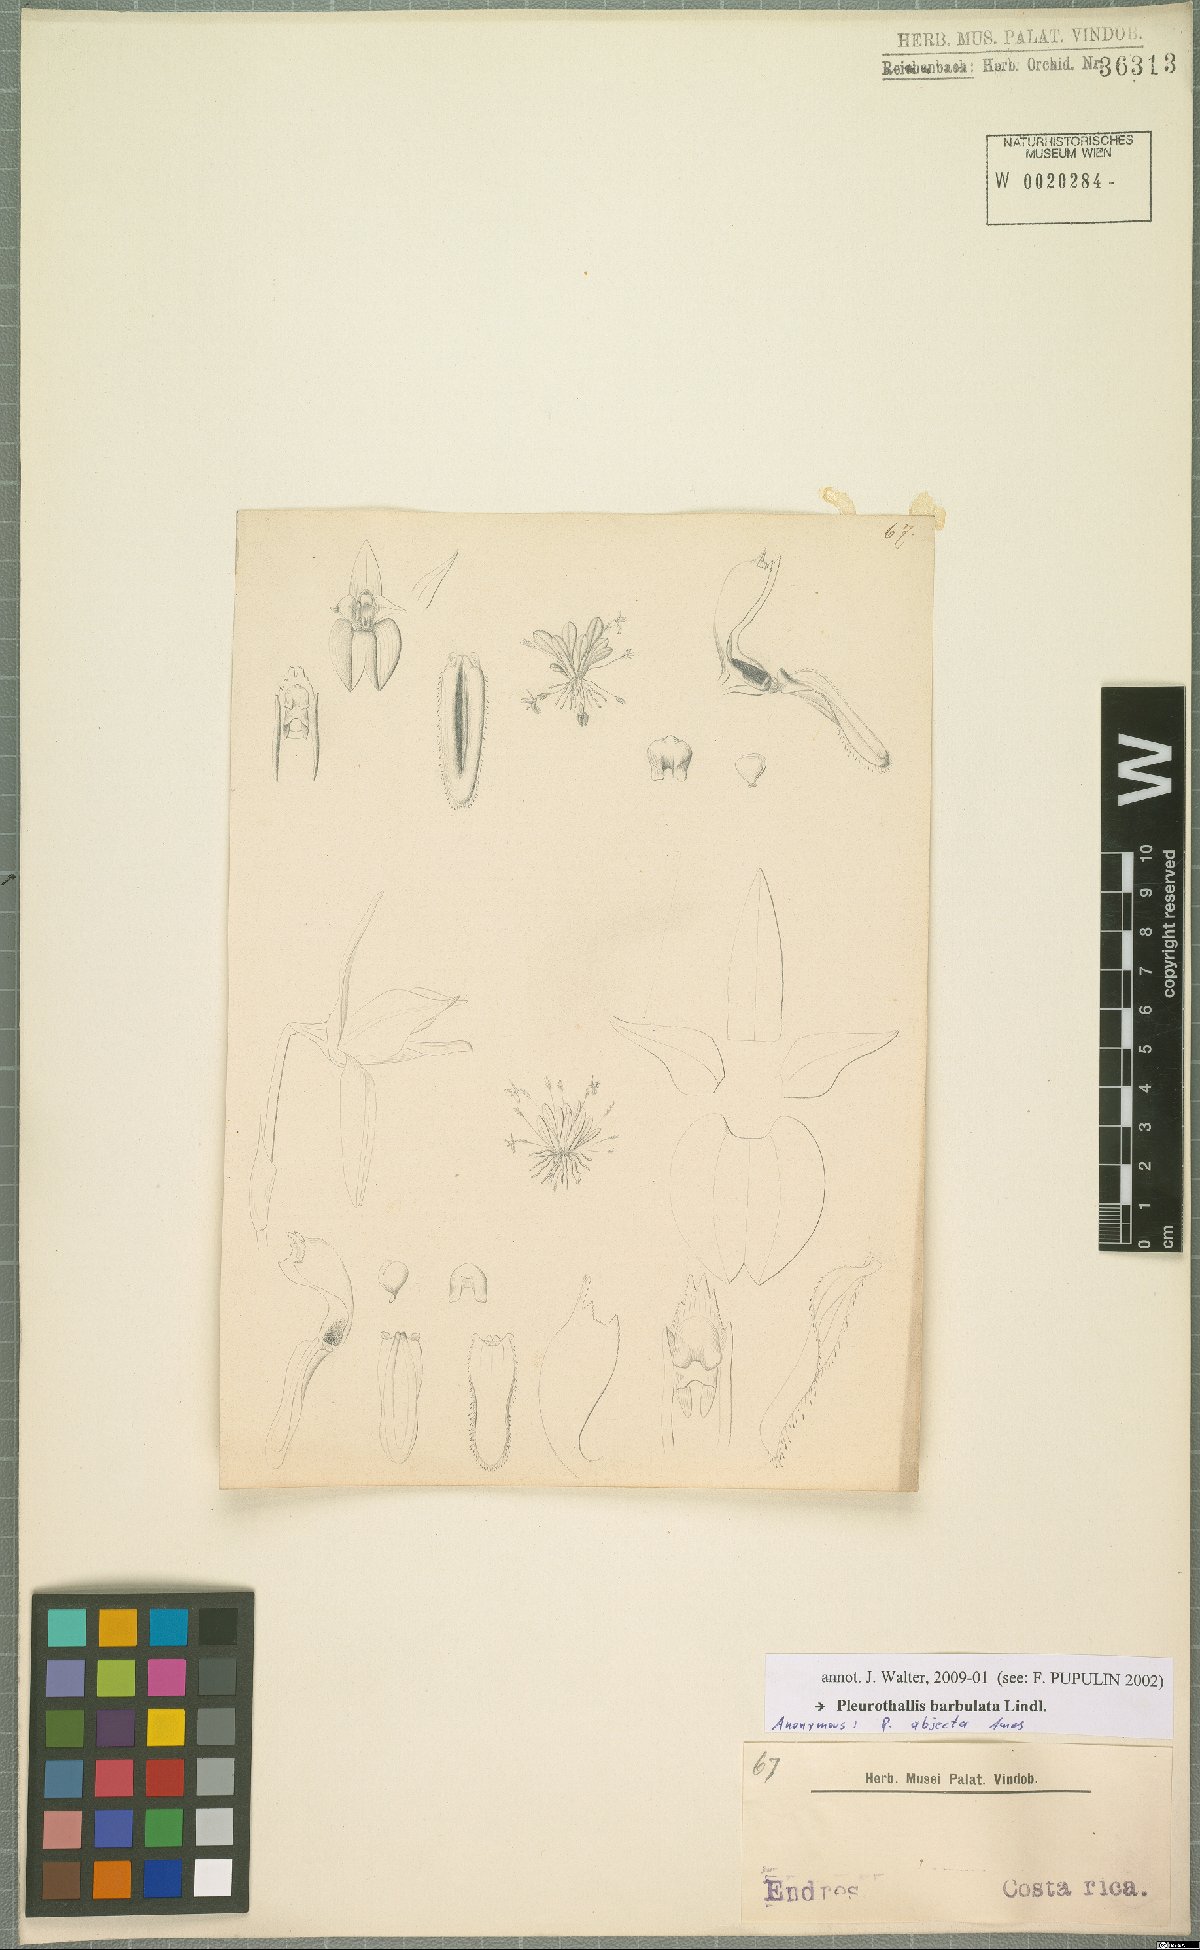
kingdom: Plantae
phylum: Tracheophyta
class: Liliopsida
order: Asparagales
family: Orchidaceae
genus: Anathallis
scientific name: Anathallis barbulata
